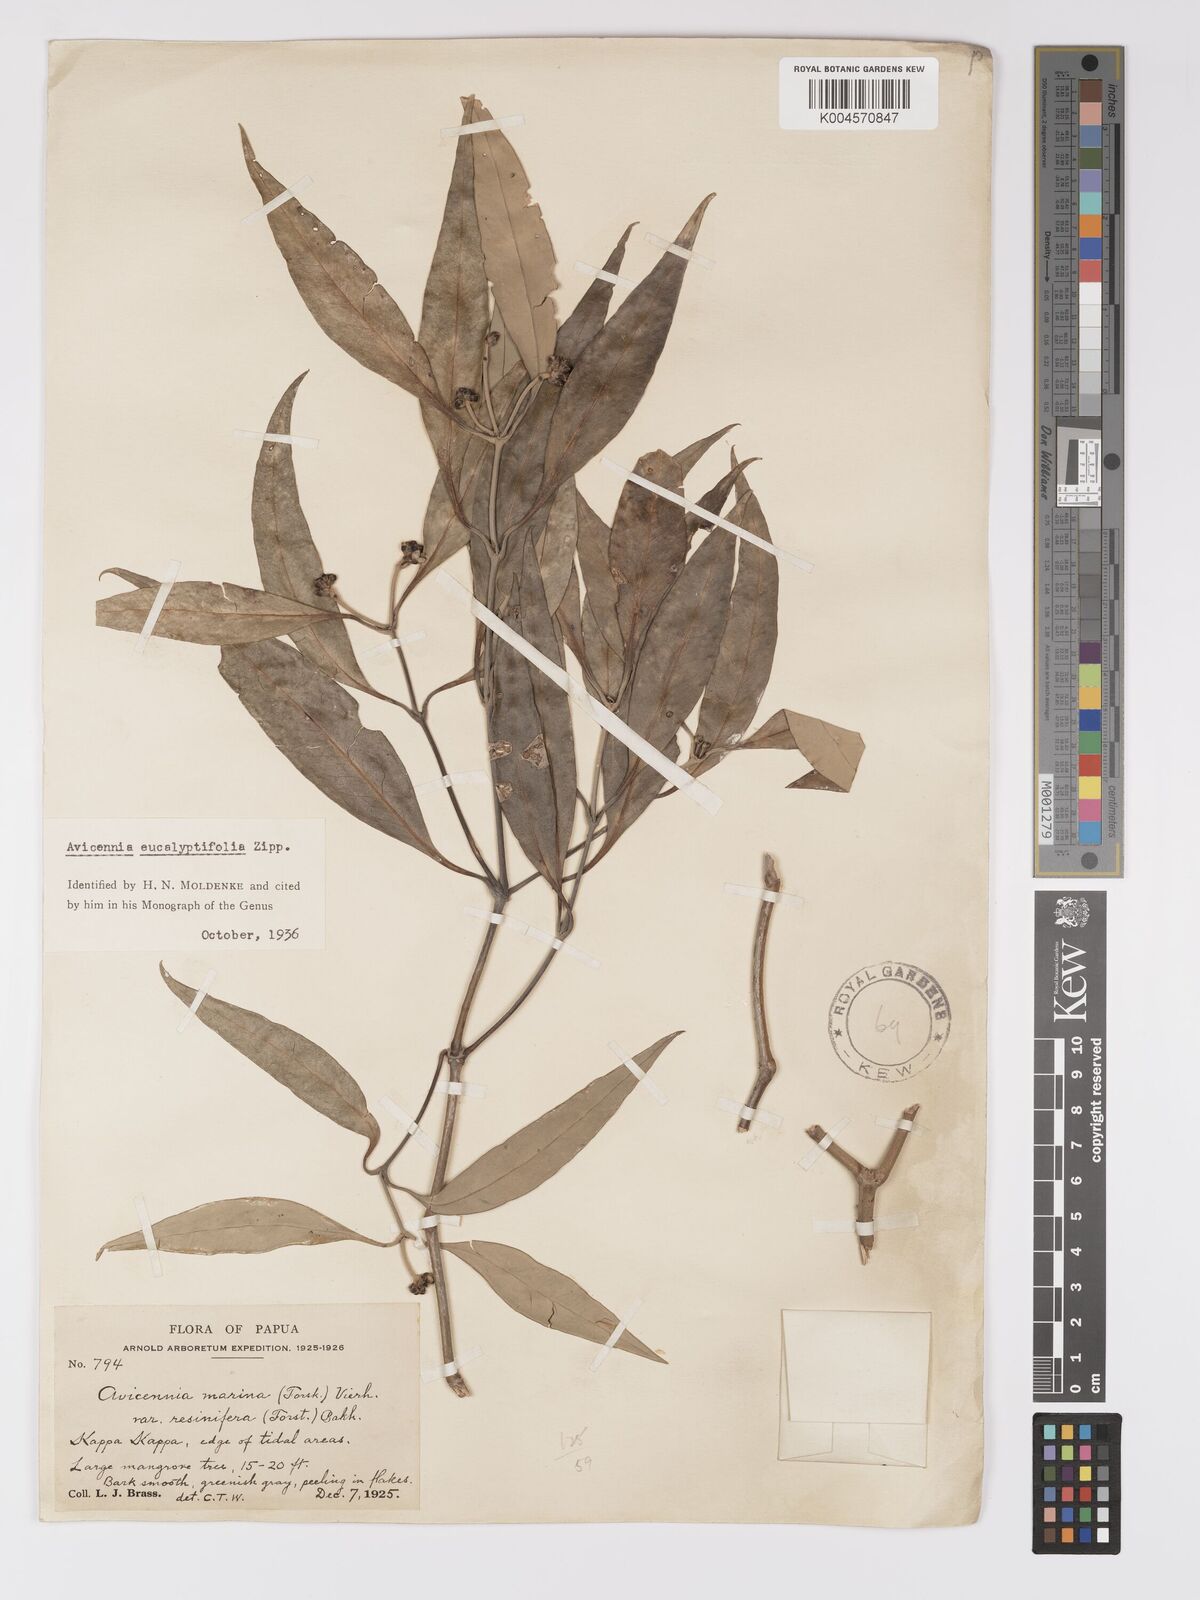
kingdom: Plantae
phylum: Tracheophyta
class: Magnoliopsida
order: Lamiales
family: Acanthaceae
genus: Avicennia
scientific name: Avicennia marina
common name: Gray mangrove
